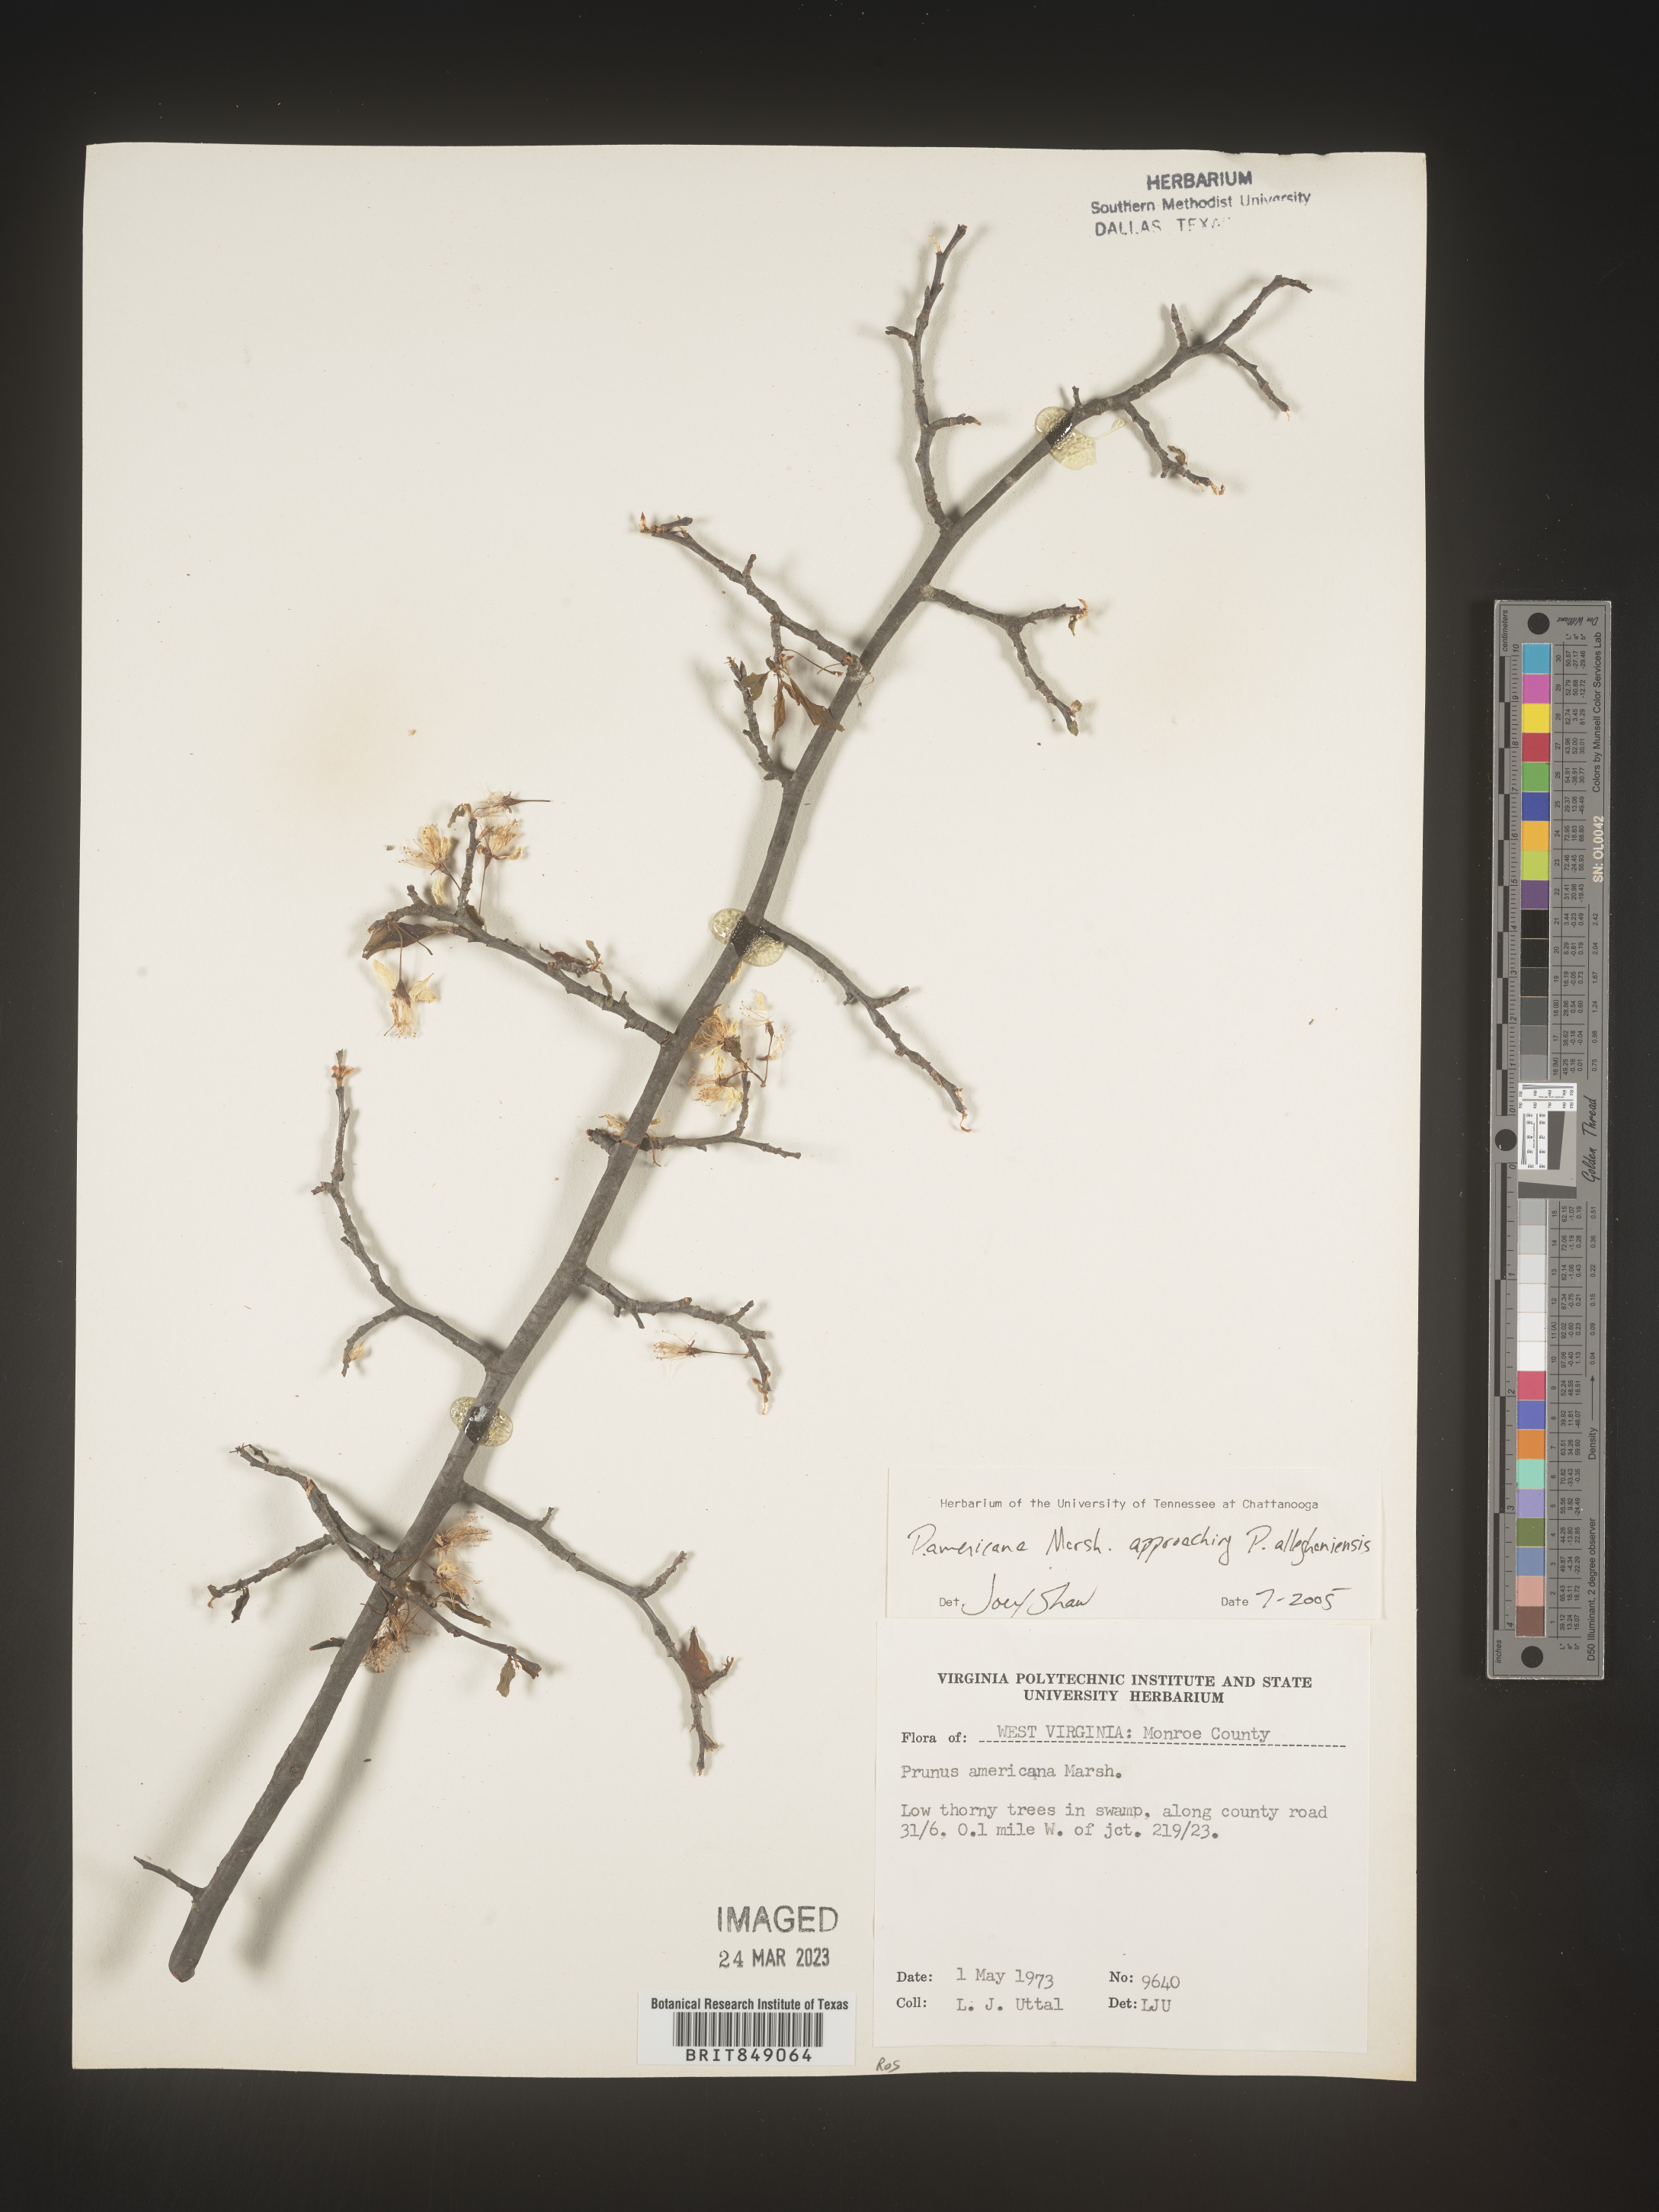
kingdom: Plantae
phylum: Tracheophyta
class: Magnoliopsida
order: Rosales
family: Rosaceae
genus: Prunus
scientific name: Prunus americana
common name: American plum
